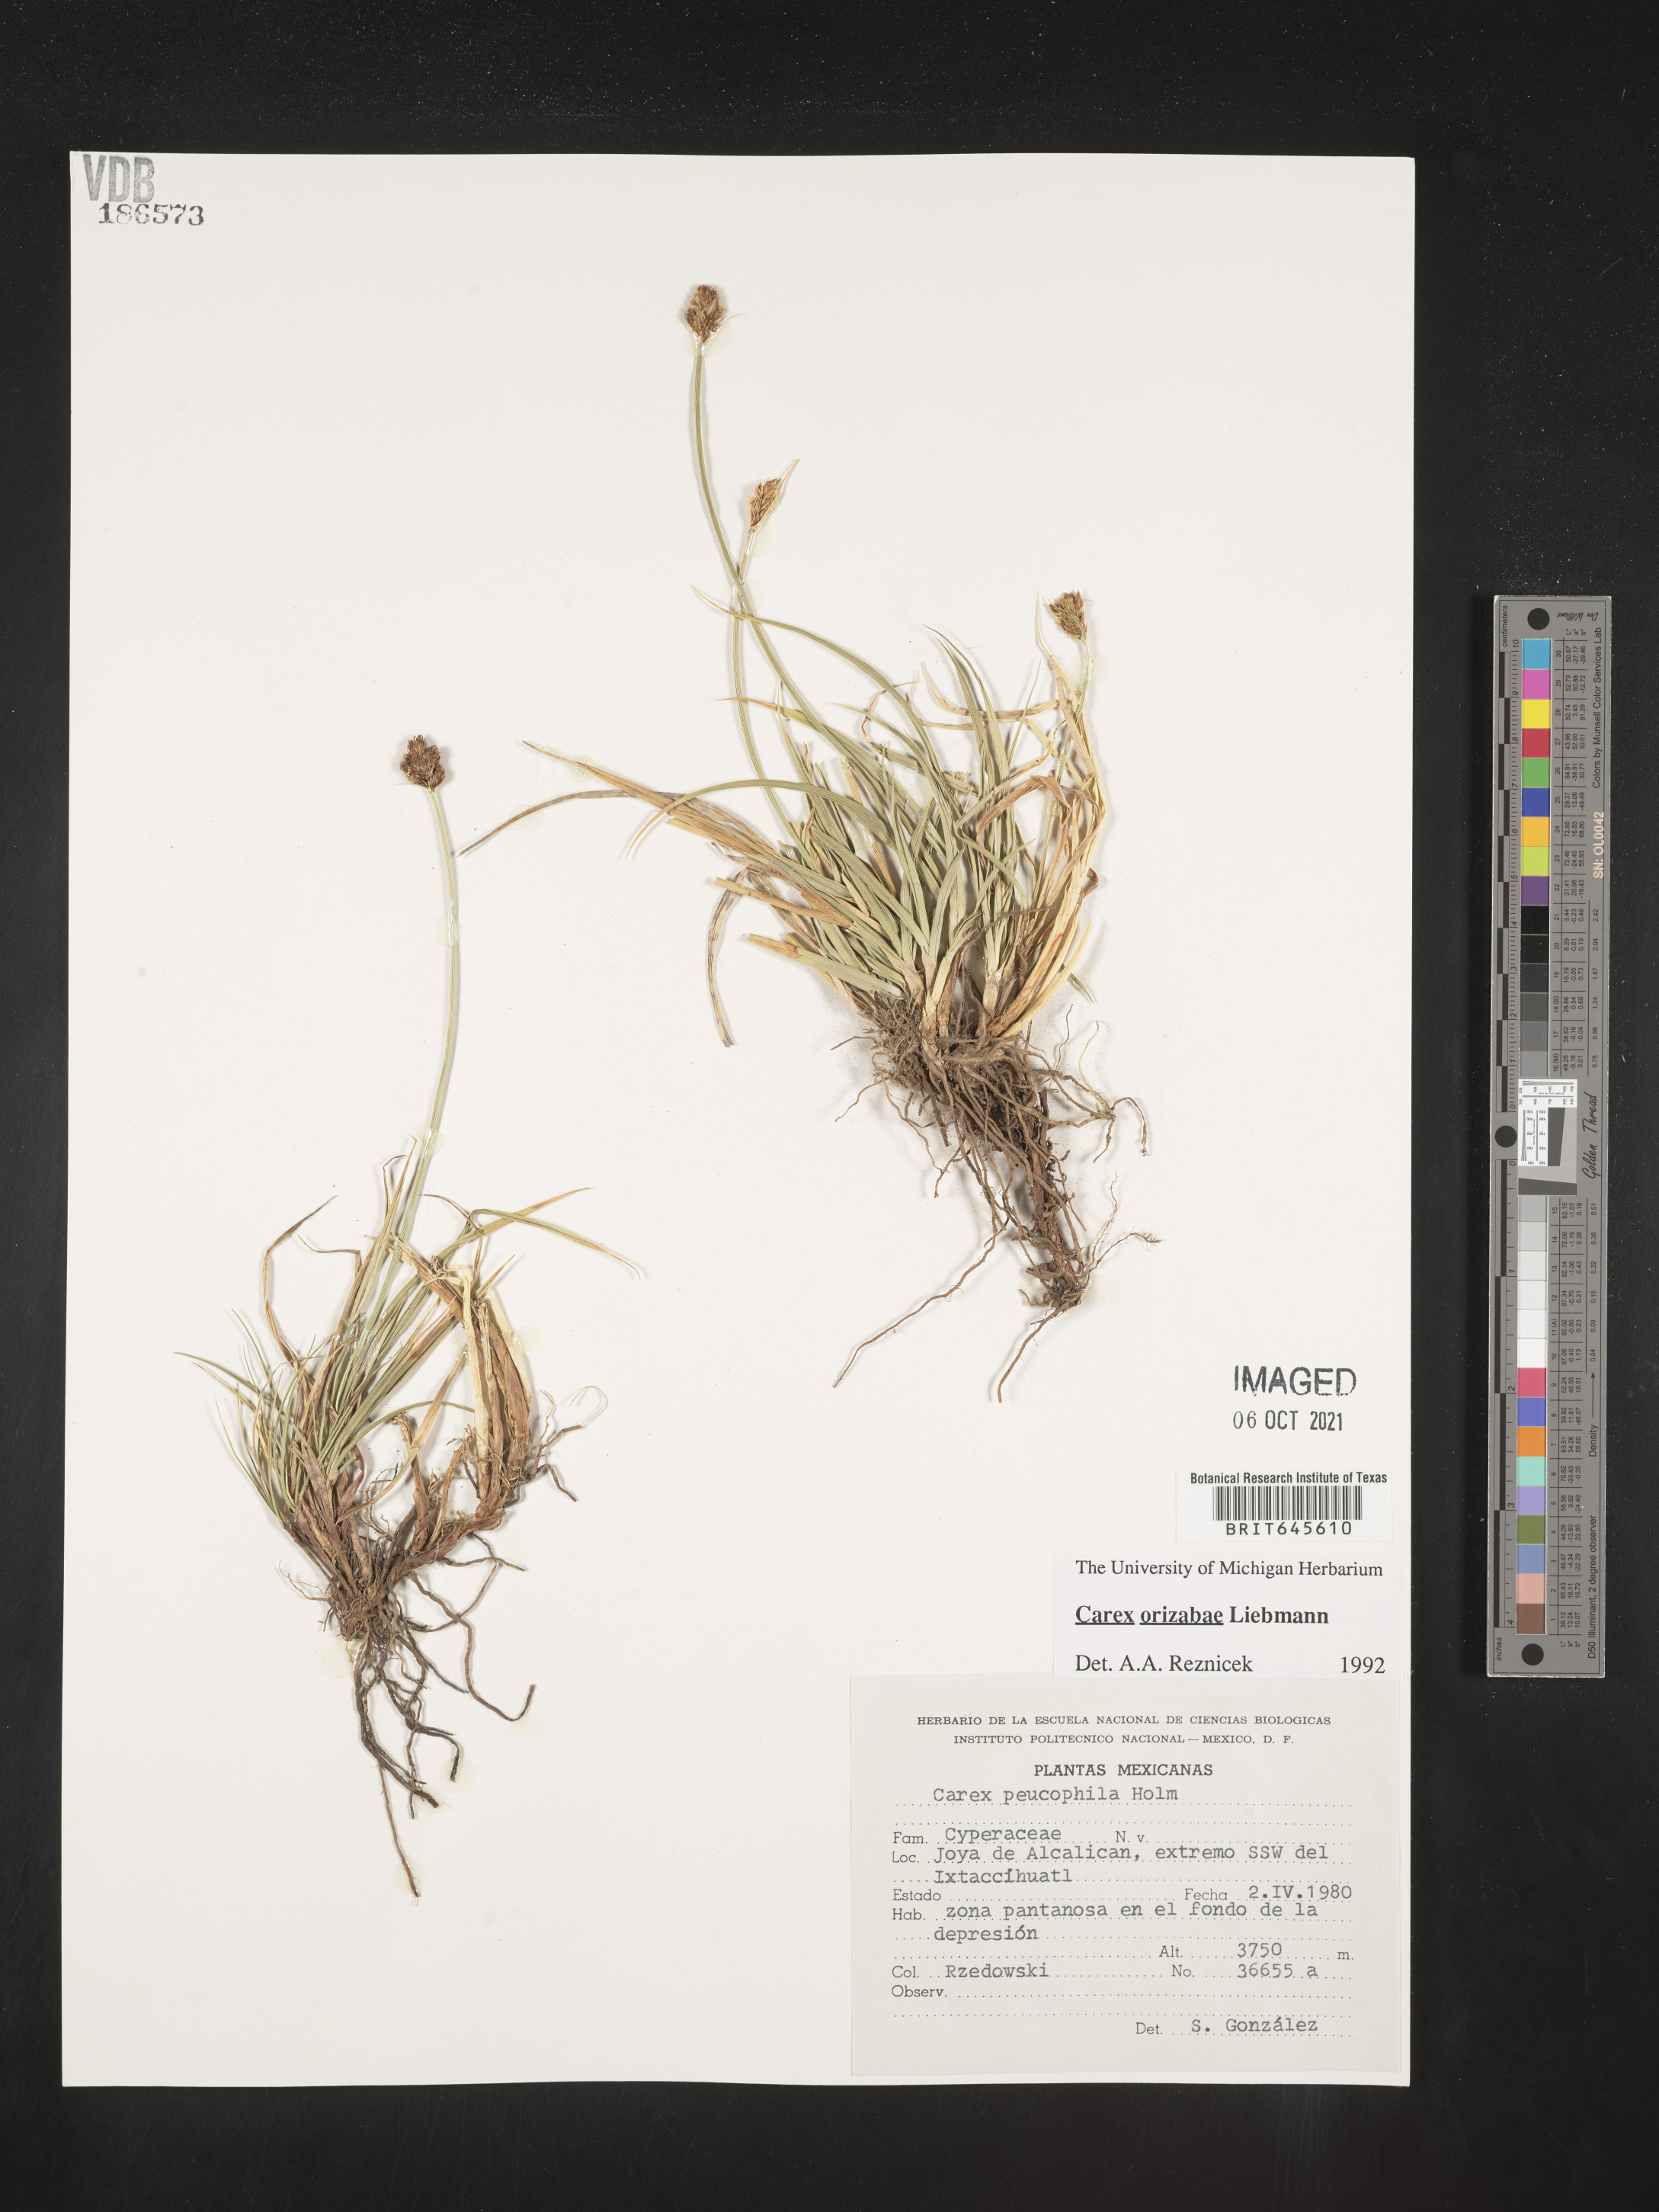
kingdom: Plantae
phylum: Tracheophyta
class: Liliopsida
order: Poales
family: Cyperaceae
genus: Carex
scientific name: Carex
